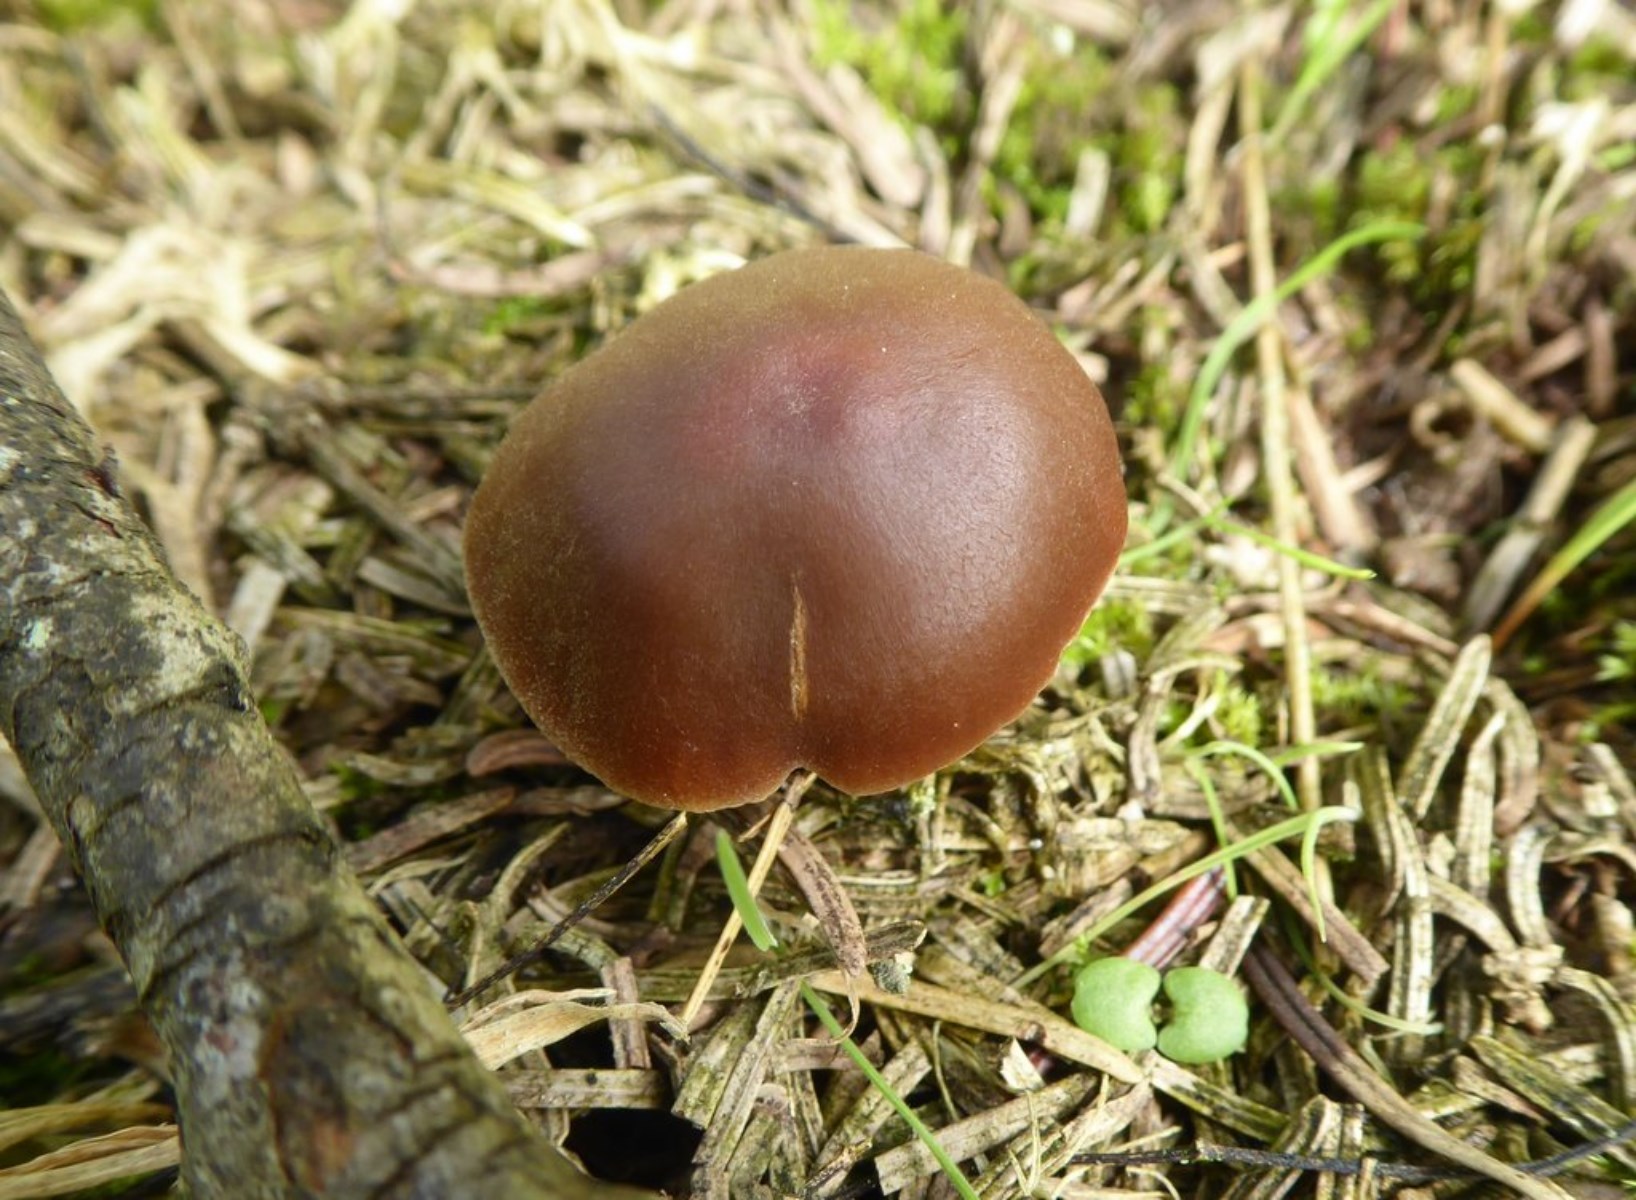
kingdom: Fungi
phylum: Basidiomycota
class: Agaricomycetes
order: Agaricales
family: Cortinariaceae
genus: Cortinarius
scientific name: Cortinarius
